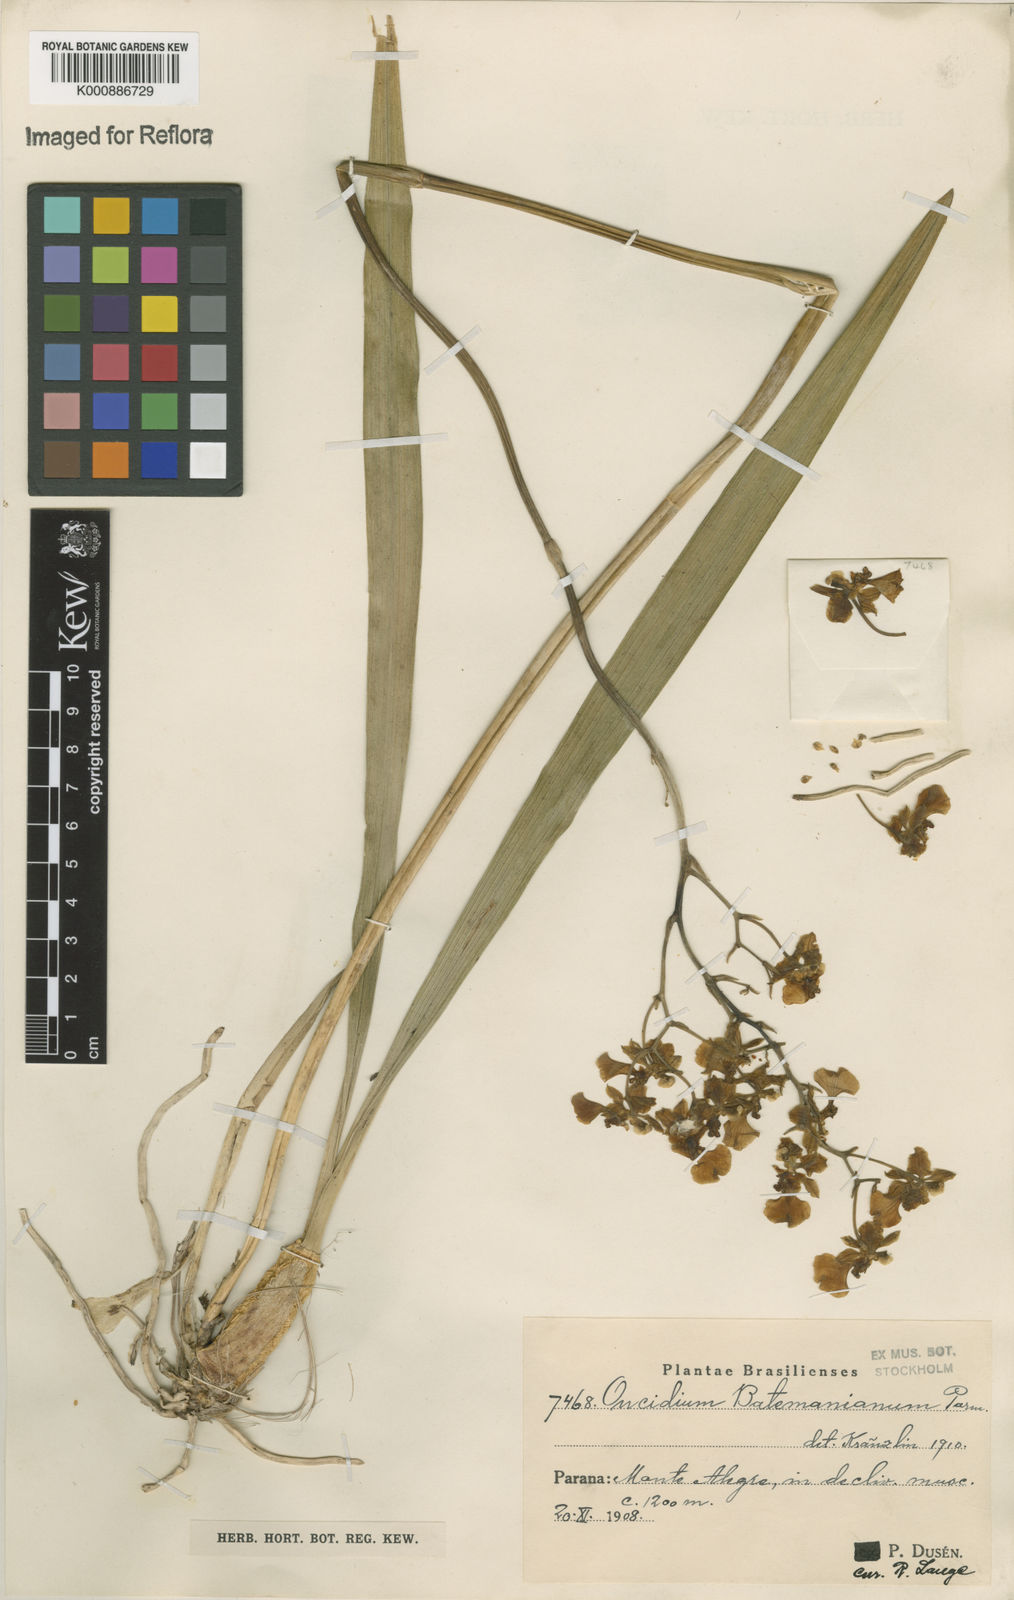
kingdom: Plantae
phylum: Tracheophyta
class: Liliopsida
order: Asparagales
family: Orchidaceae
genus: Gomesa
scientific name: Gomesa doniana
